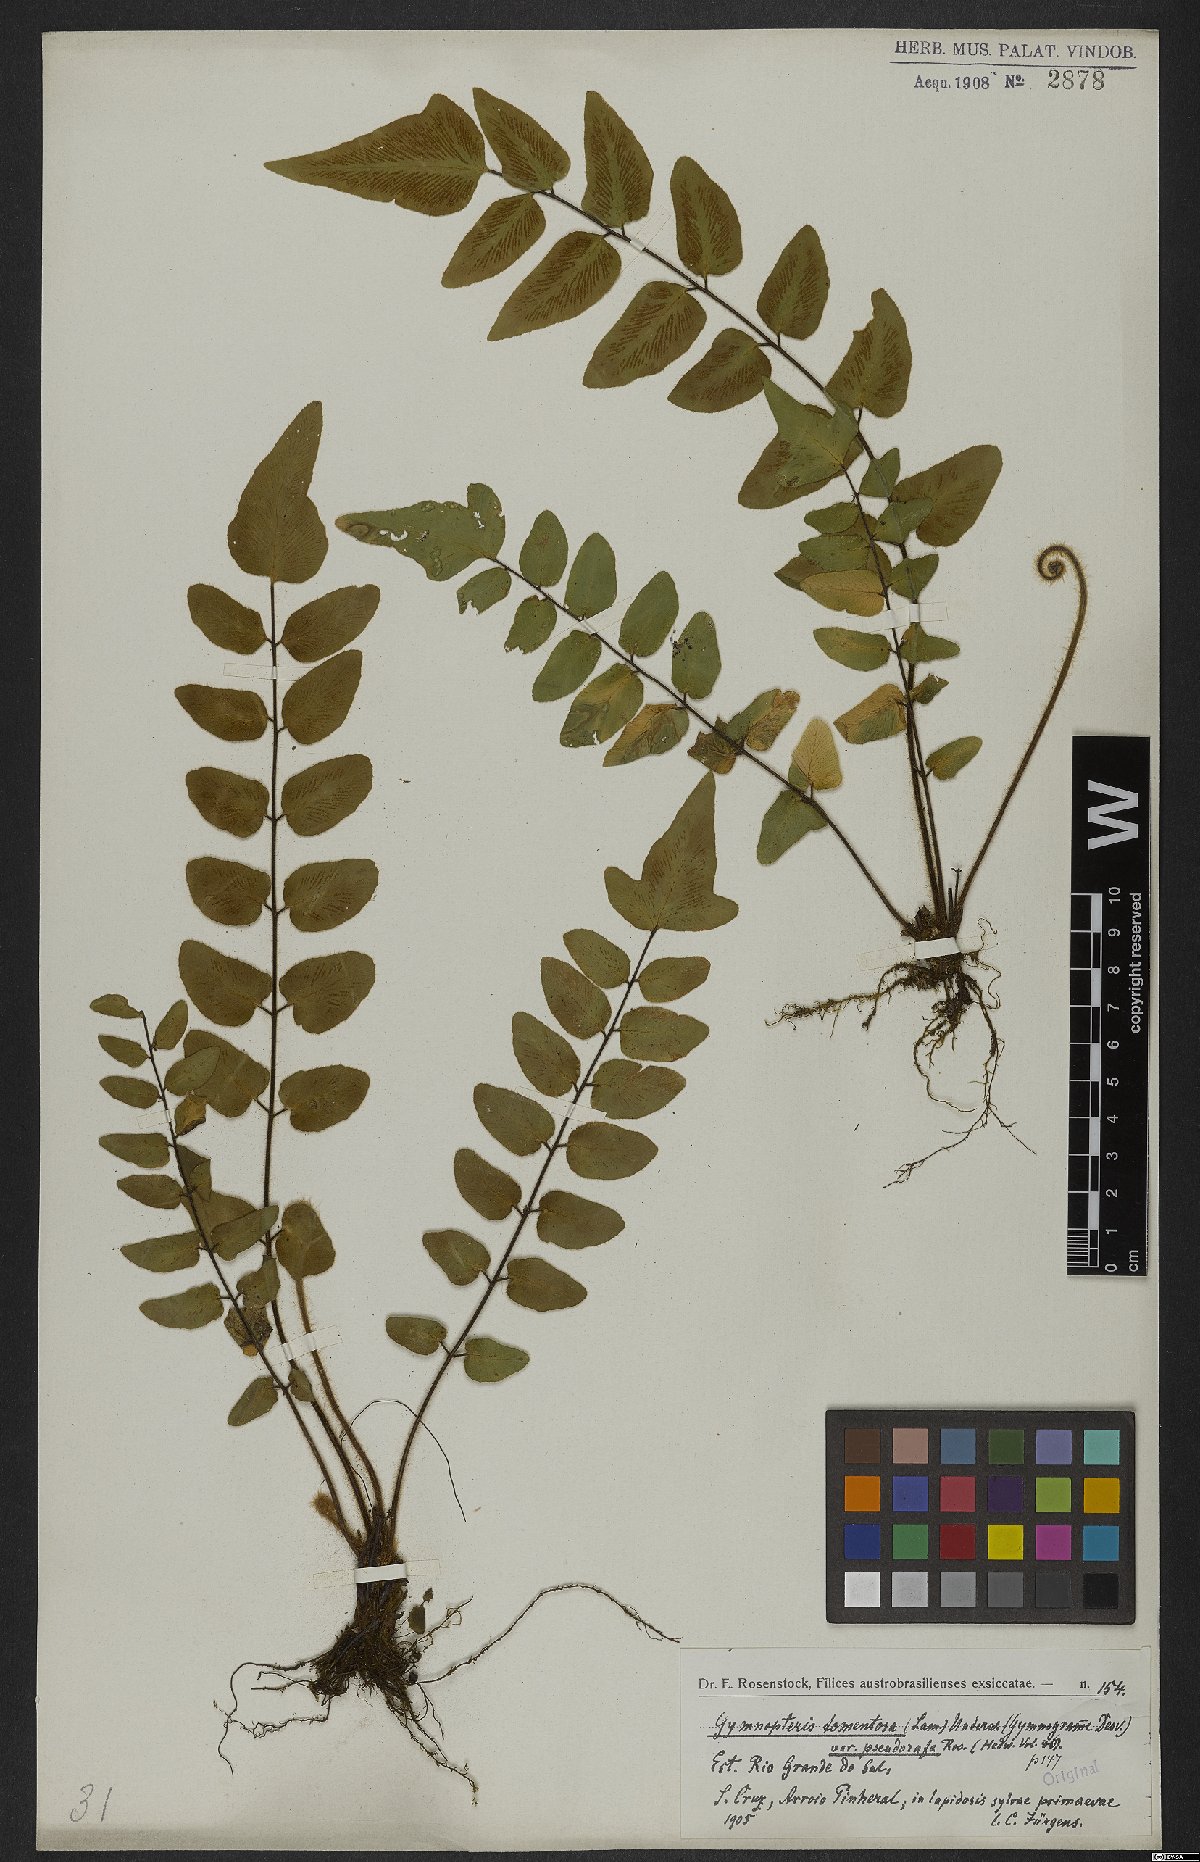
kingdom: Plantae
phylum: Tracheophyta
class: Polypodiopsida
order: Polypodiales
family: Pteridaceae
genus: Hemionitis
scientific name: Hemionitis tomentosa
